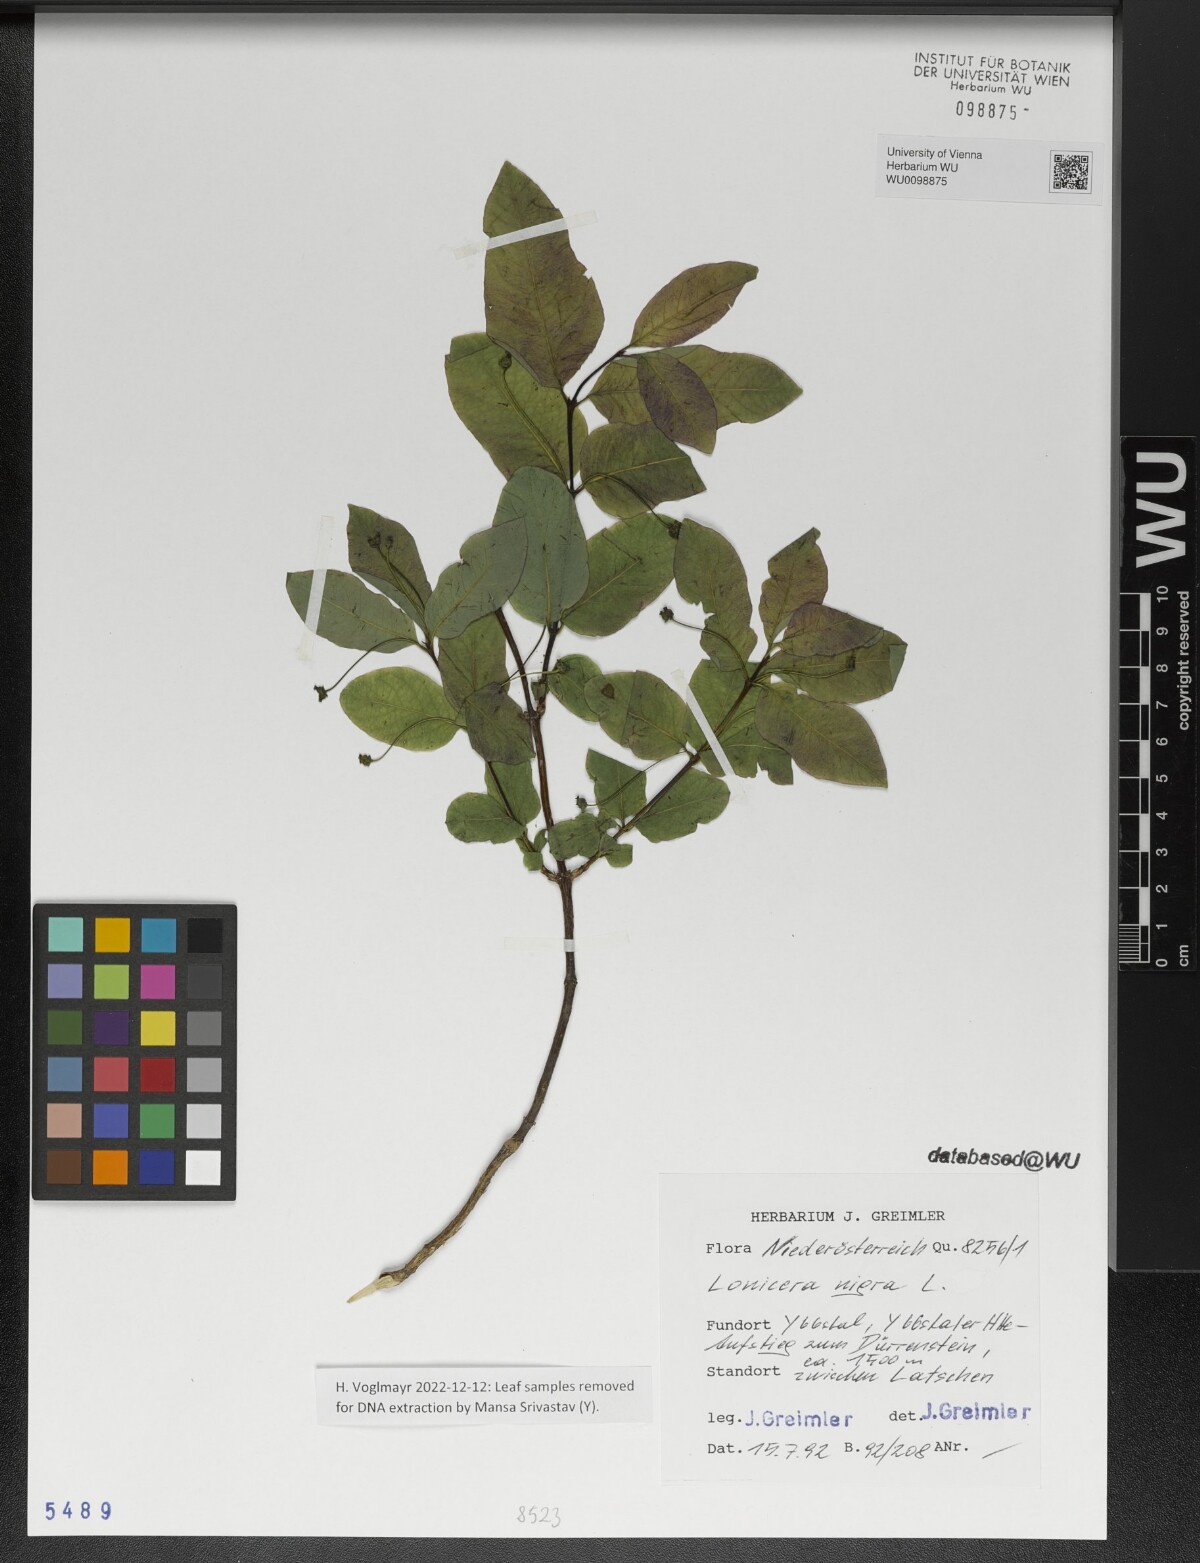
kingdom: Plantae
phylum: Tracheophyta
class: Magnoliopsida
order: Dipsacales
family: Caprifoliaceae
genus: Lonicera
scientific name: Lonicera nigra
